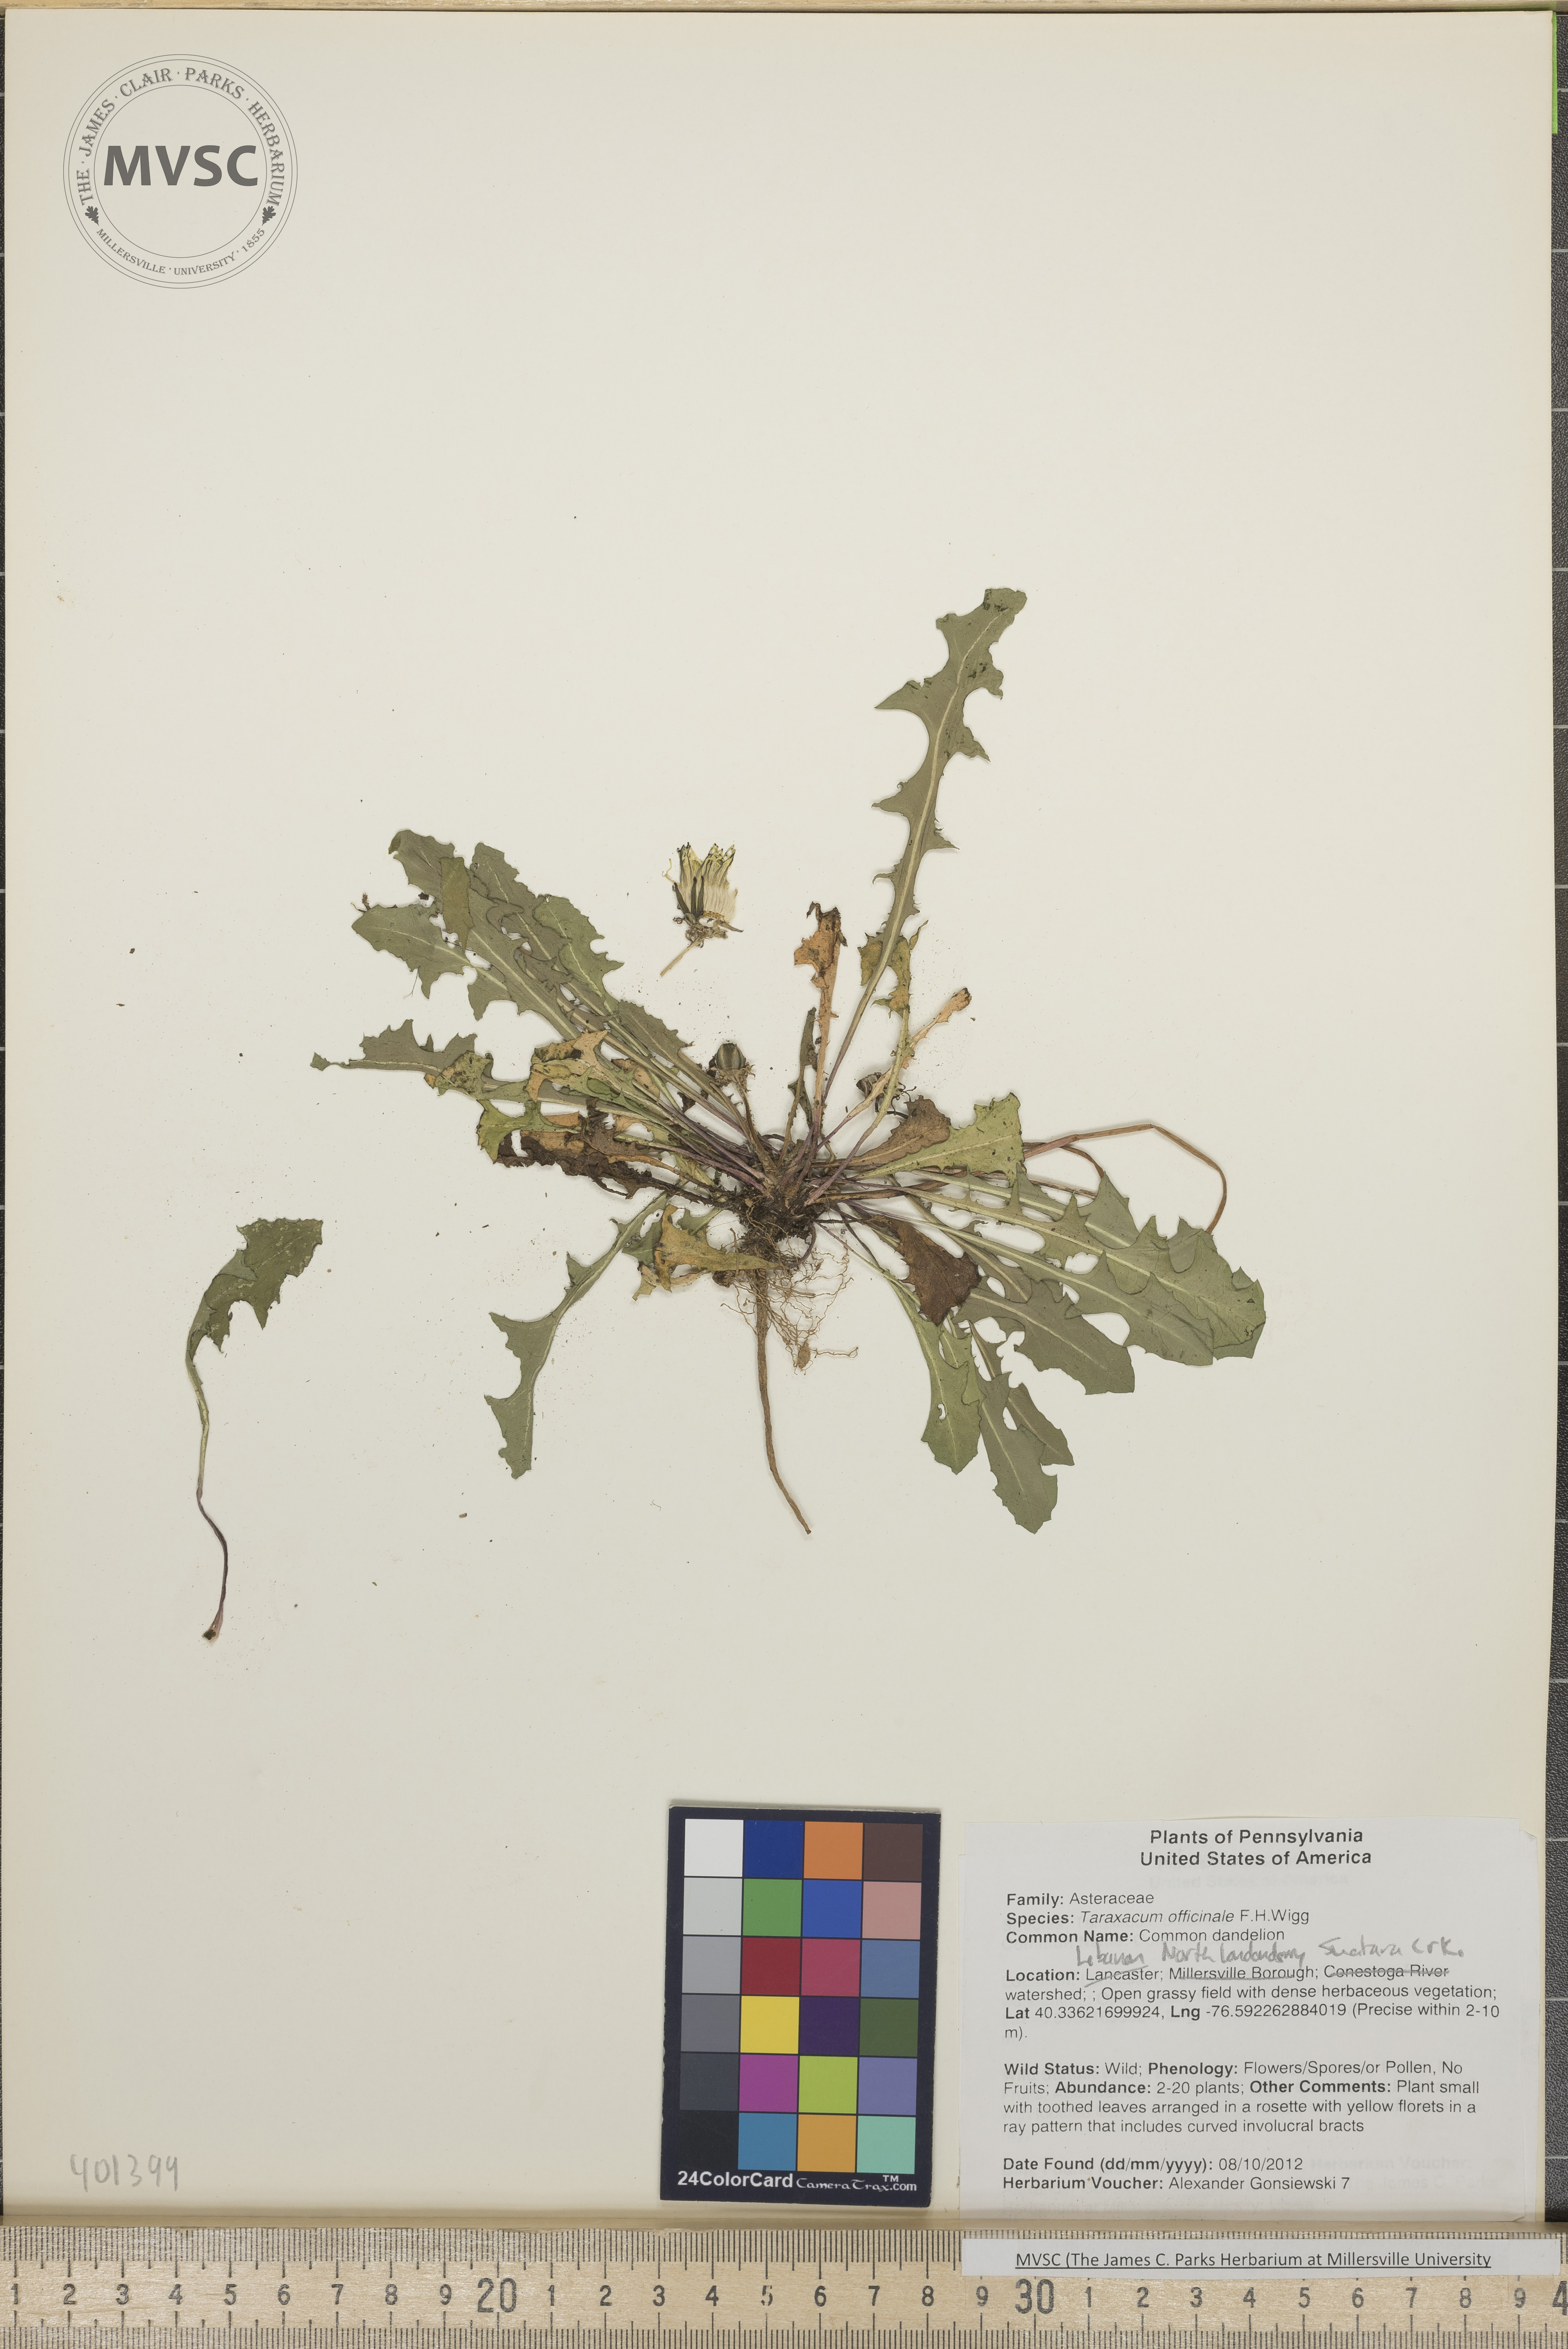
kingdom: Plantae
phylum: Tracheophyta
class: Magnoliopsida
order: Asterales
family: Asteraceae
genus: Taraxacum
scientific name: Taraxacum officinale
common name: Common dandelion
